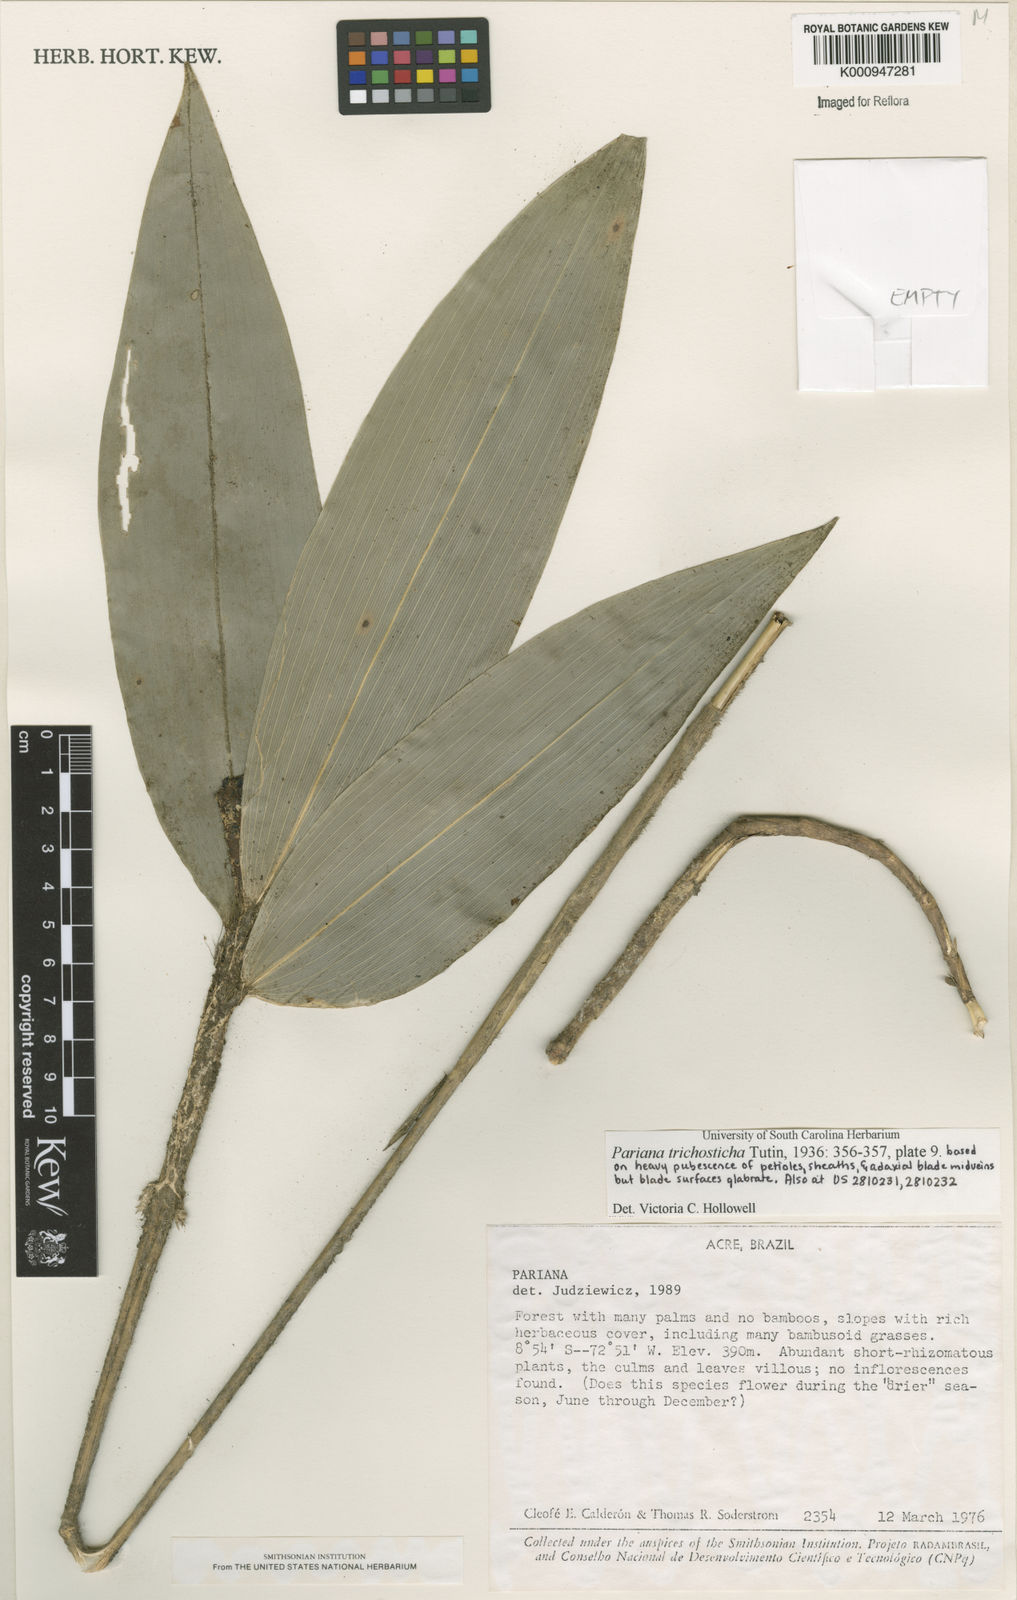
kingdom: Plantae
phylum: Tracheophyta
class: Liliopsida
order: Poales
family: Poaceae
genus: Pariana
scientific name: Pariana trichosticha
